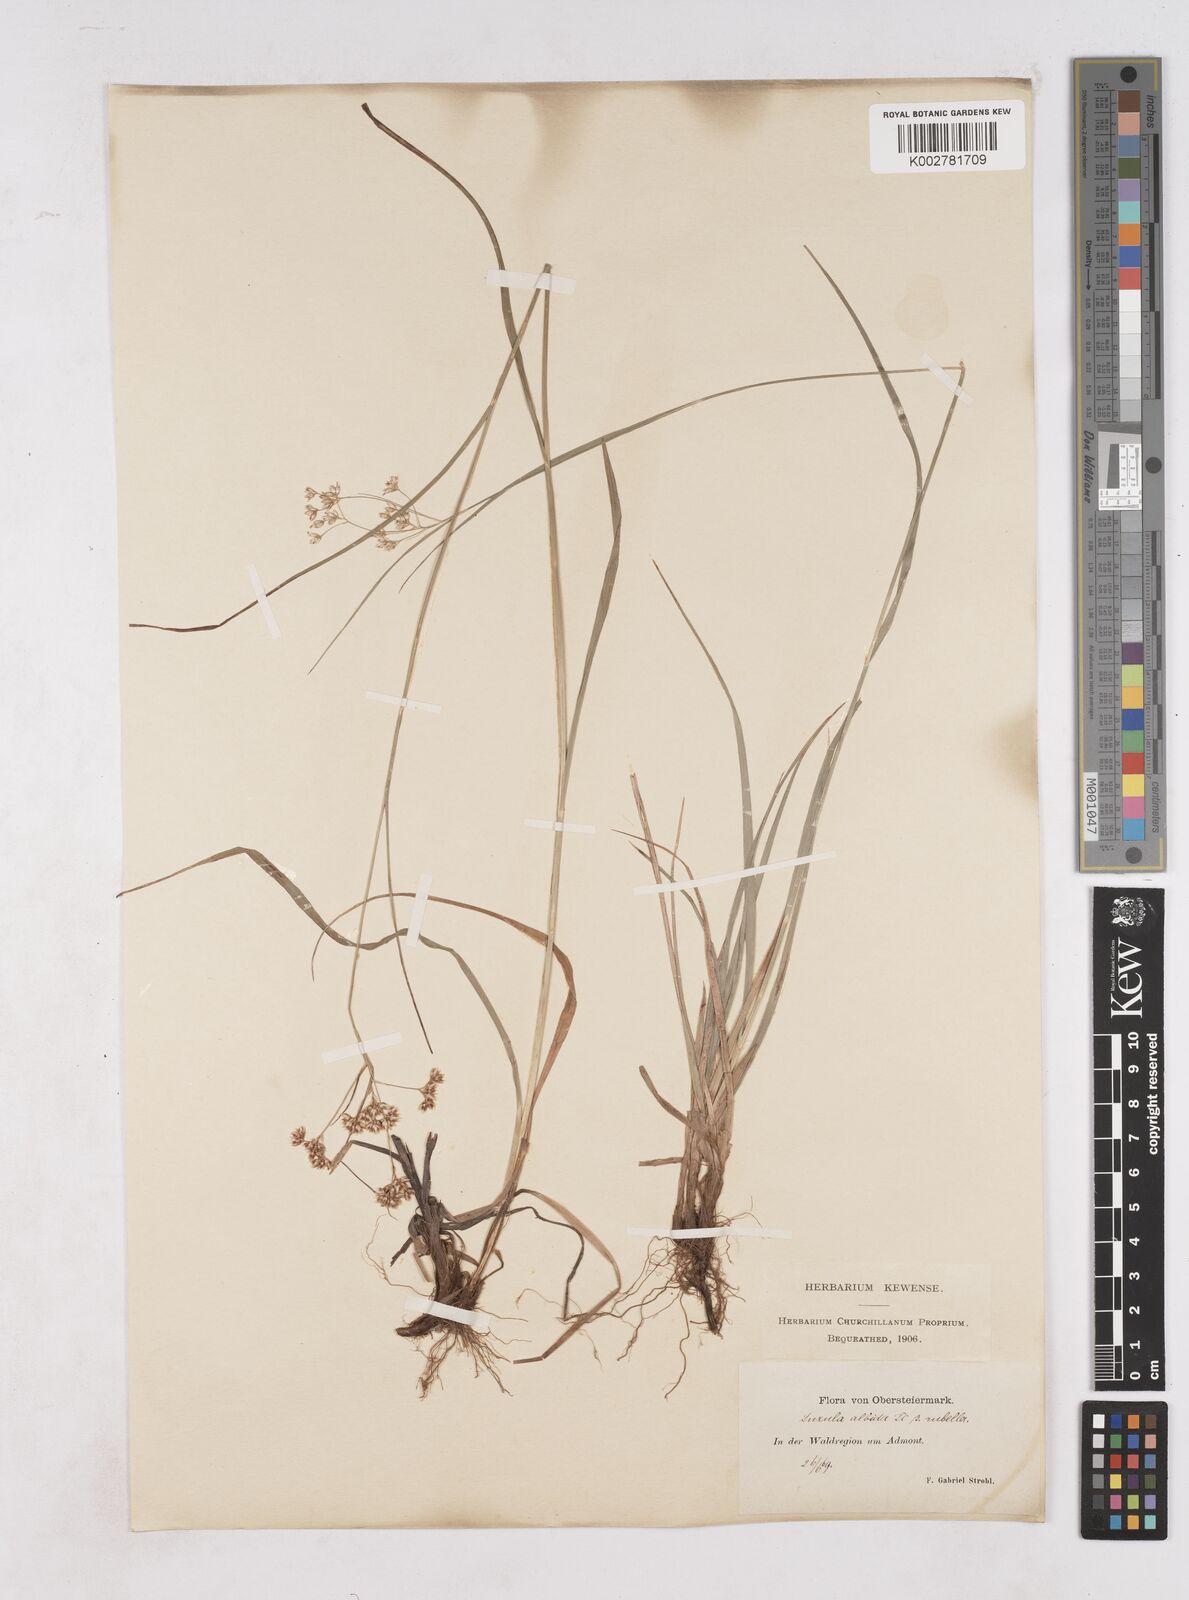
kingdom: Plantae
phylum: Tracheophyta
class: Liliopsida
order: Poales
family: Juncaceae
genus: Luzula
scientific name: Luzula luzuloides
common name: White wood-rush
